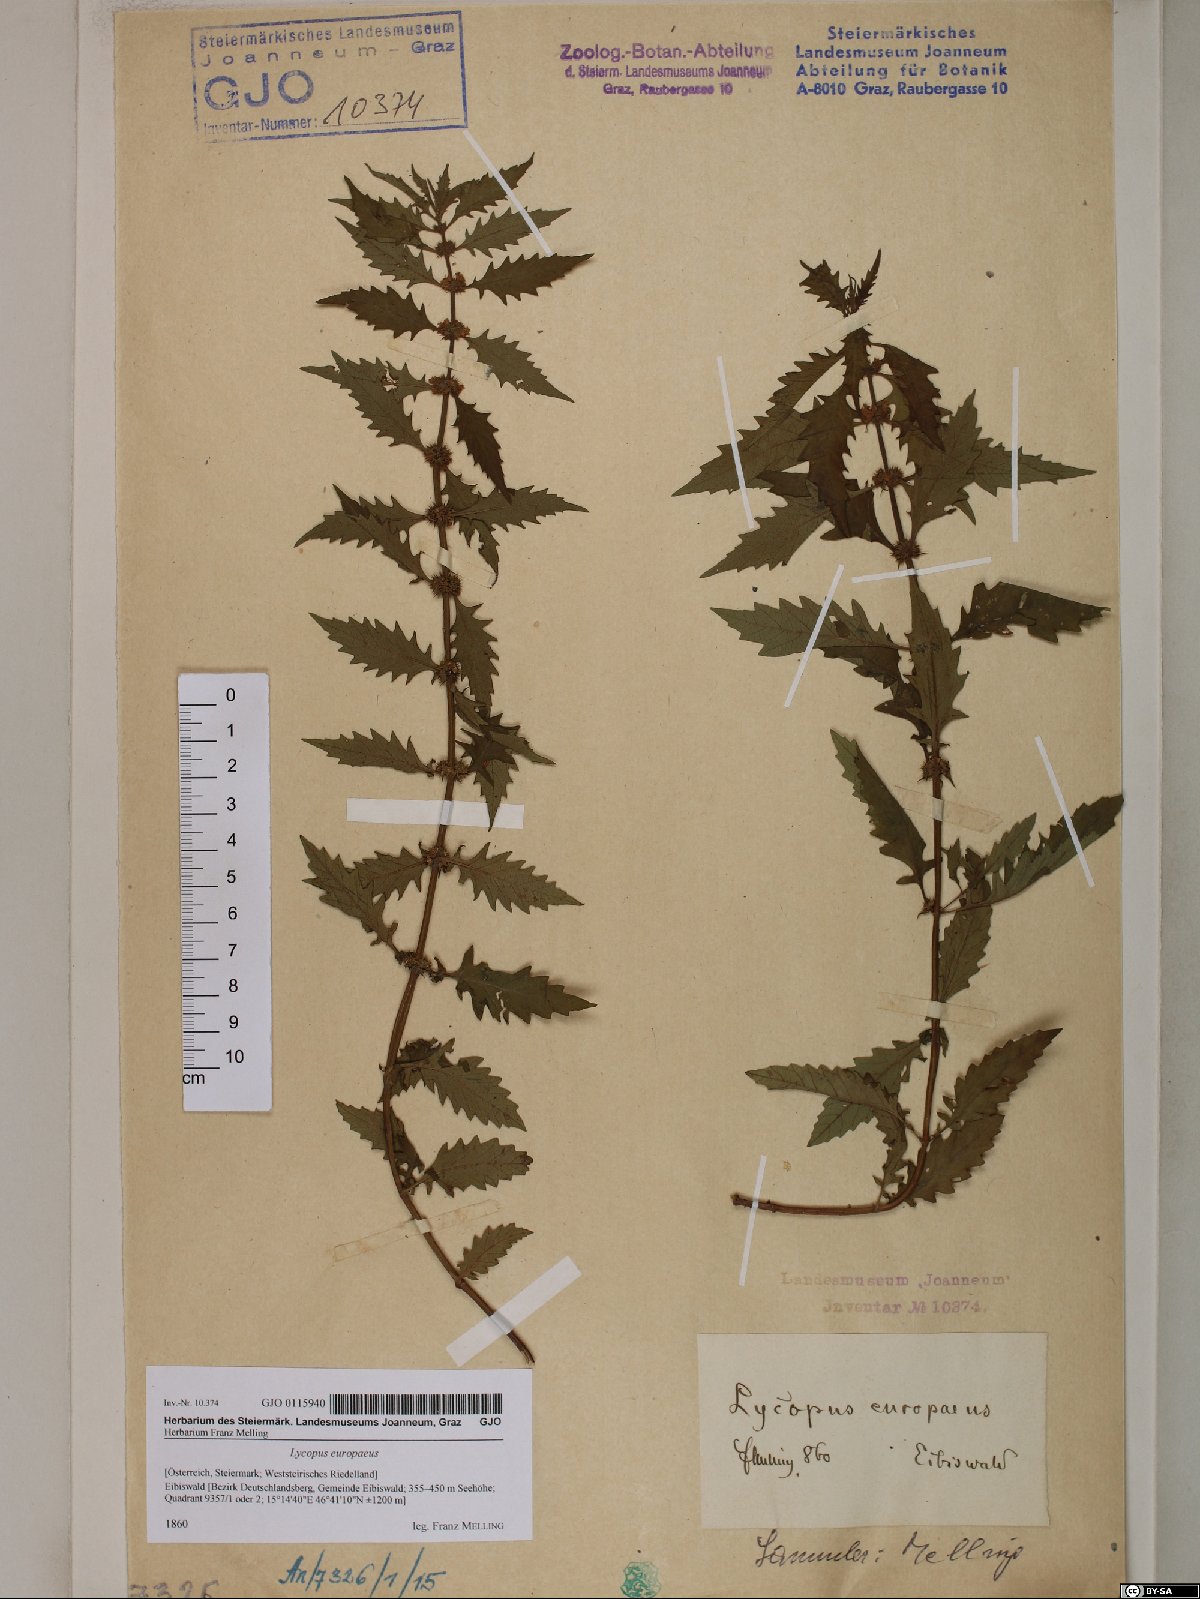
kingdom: Plantae
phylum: Tracheophyta
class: Magnoliopsida
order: Lamiales
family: Lamiaceae
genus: Lycopus
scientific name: Lycopus europaeus
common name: European bugleweed
